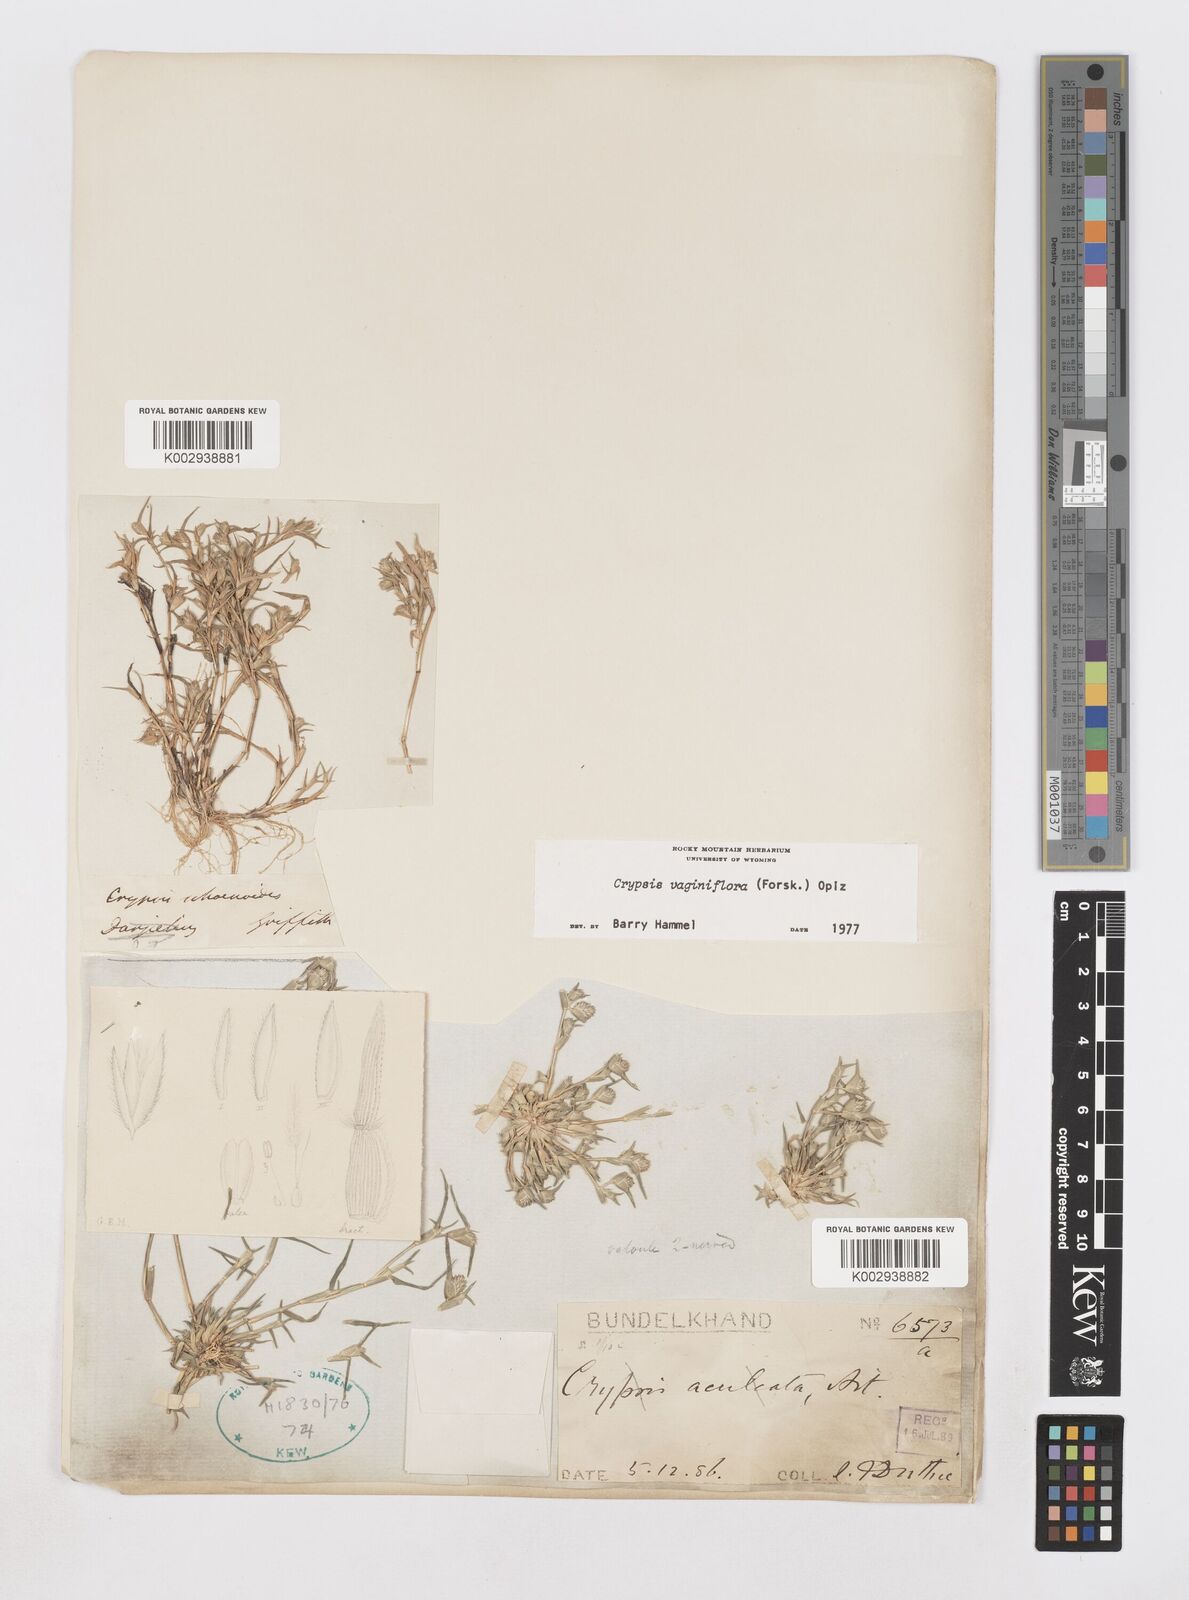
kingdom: Plantae
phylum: Tracheophyta
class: Liliopsida
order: Poales
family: Poaceae
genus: Sporobolus
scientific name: Sporobolus niliacus
